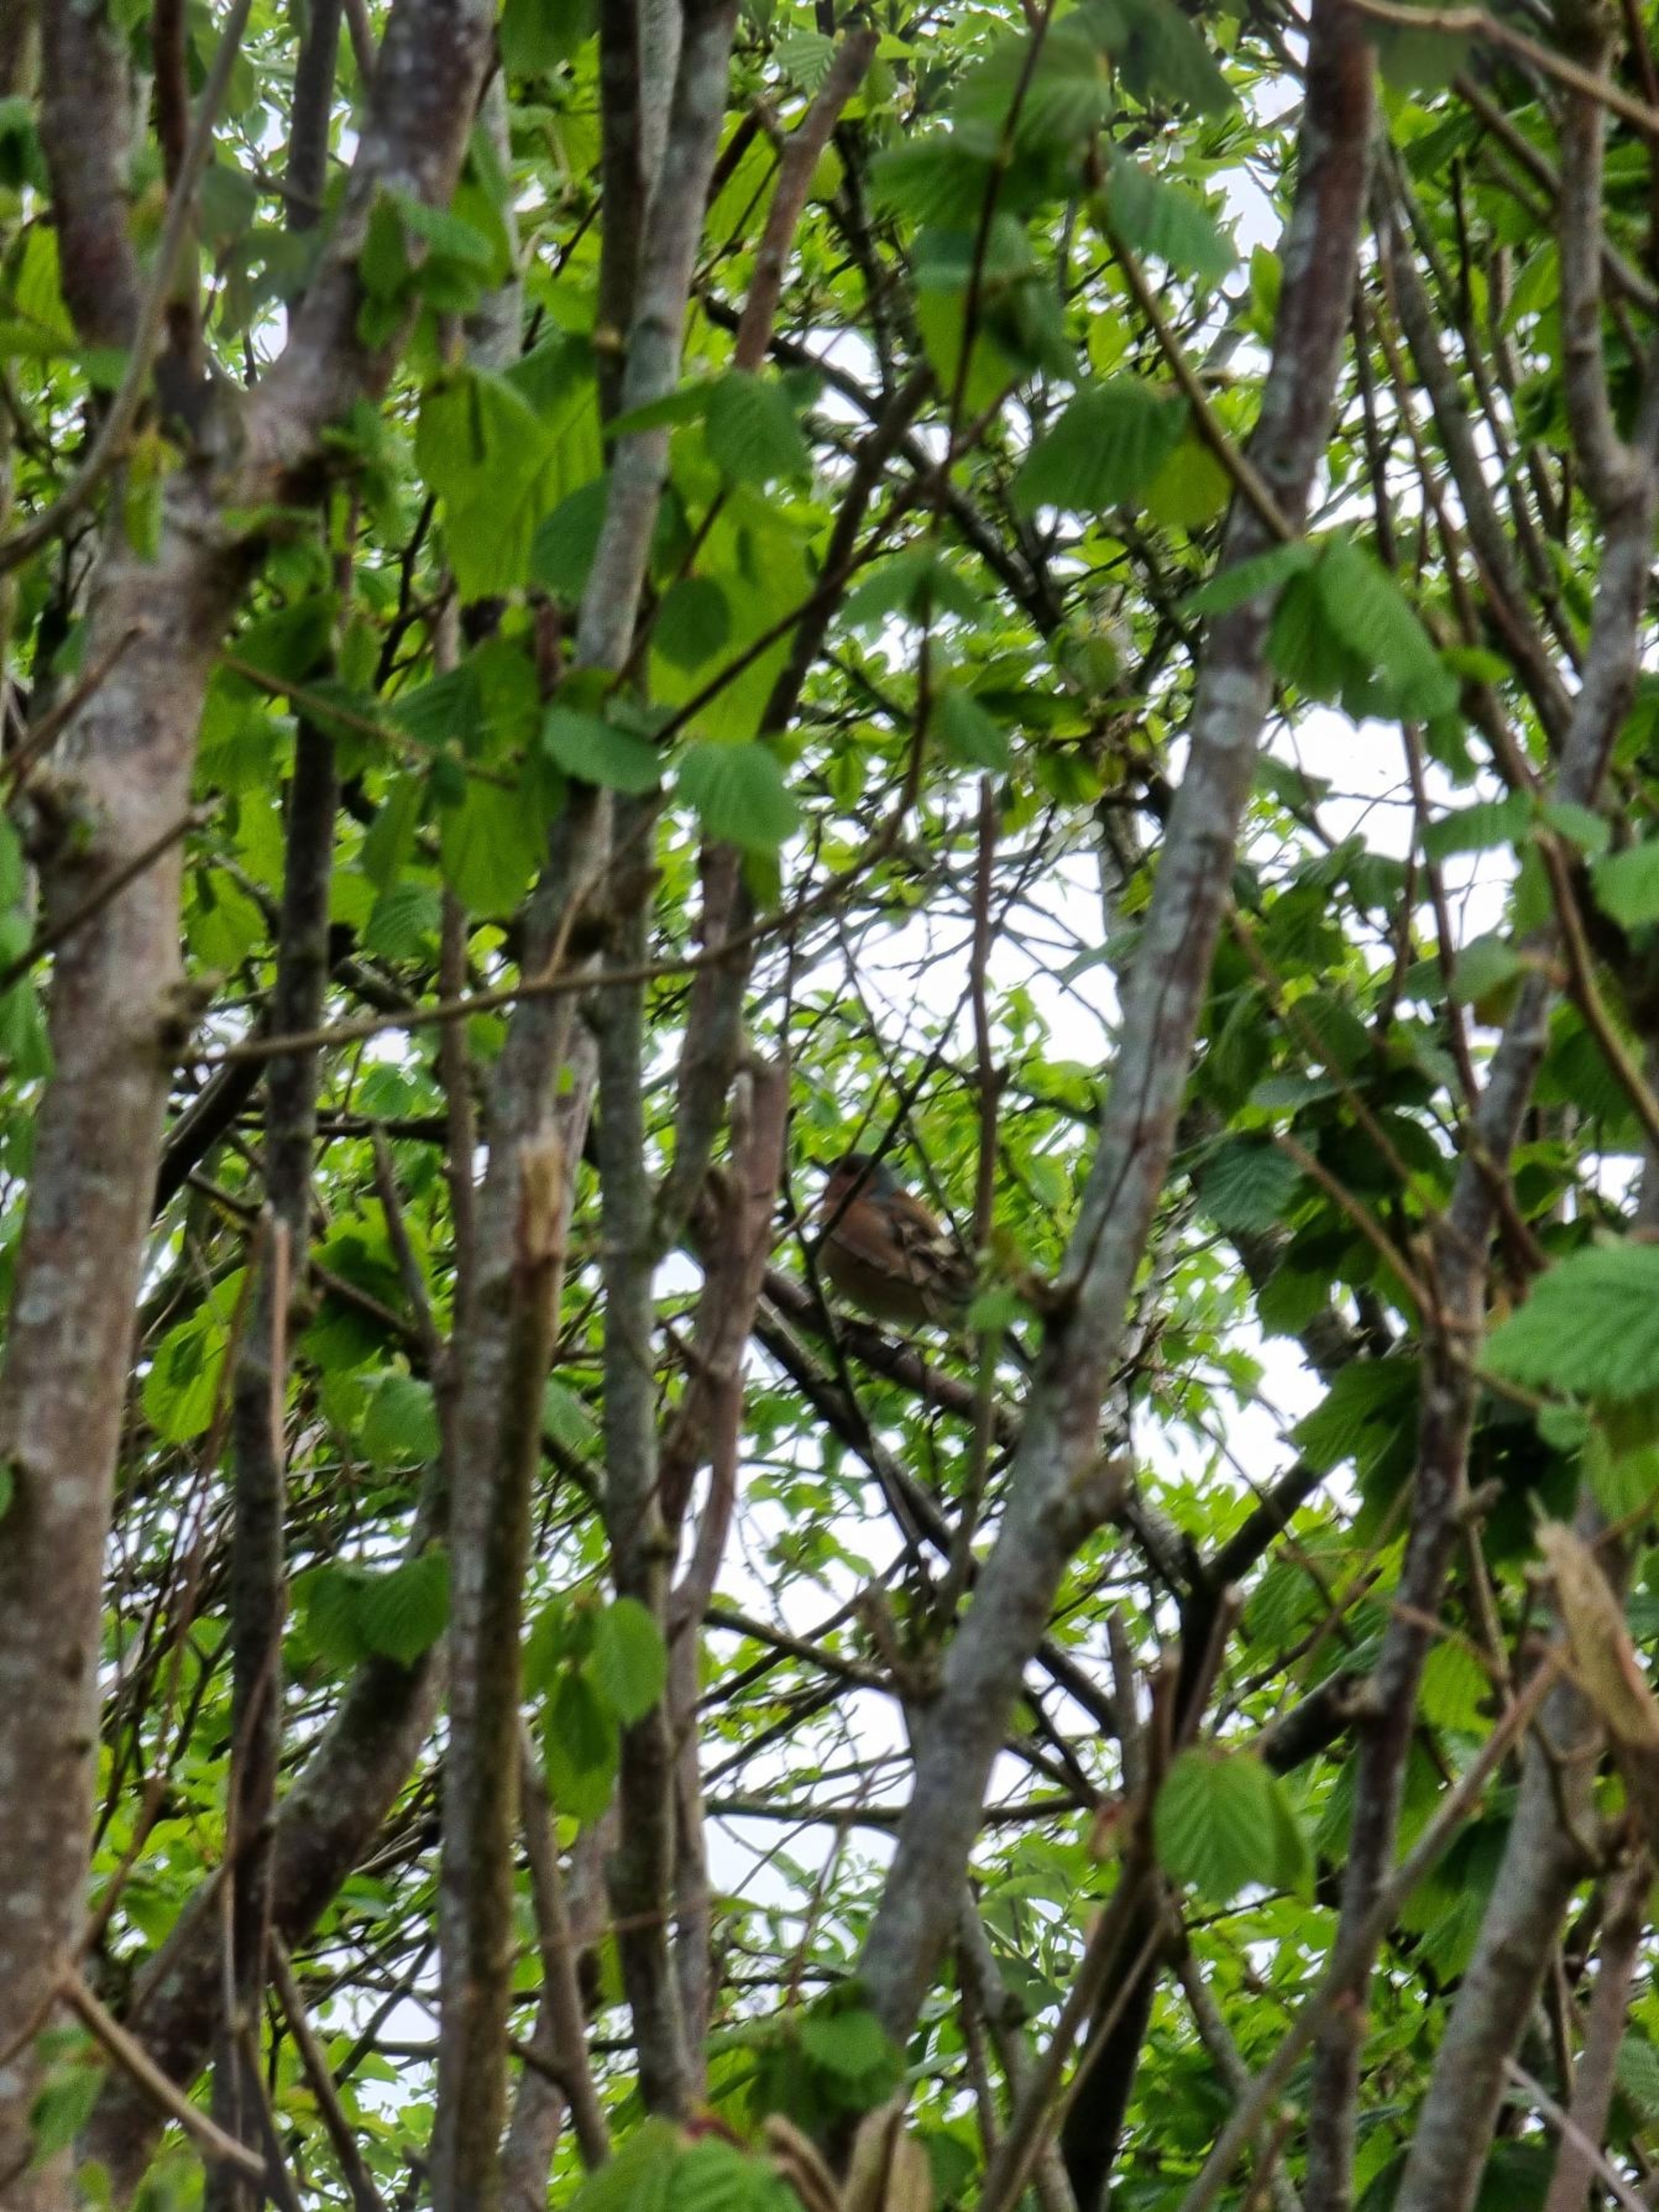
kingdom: Animalia
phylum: Chordata
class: Aves
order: Passeriformes
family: Fringillidae
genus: Fringilla
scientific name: Fringilla coelebs
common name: Bogfinke
